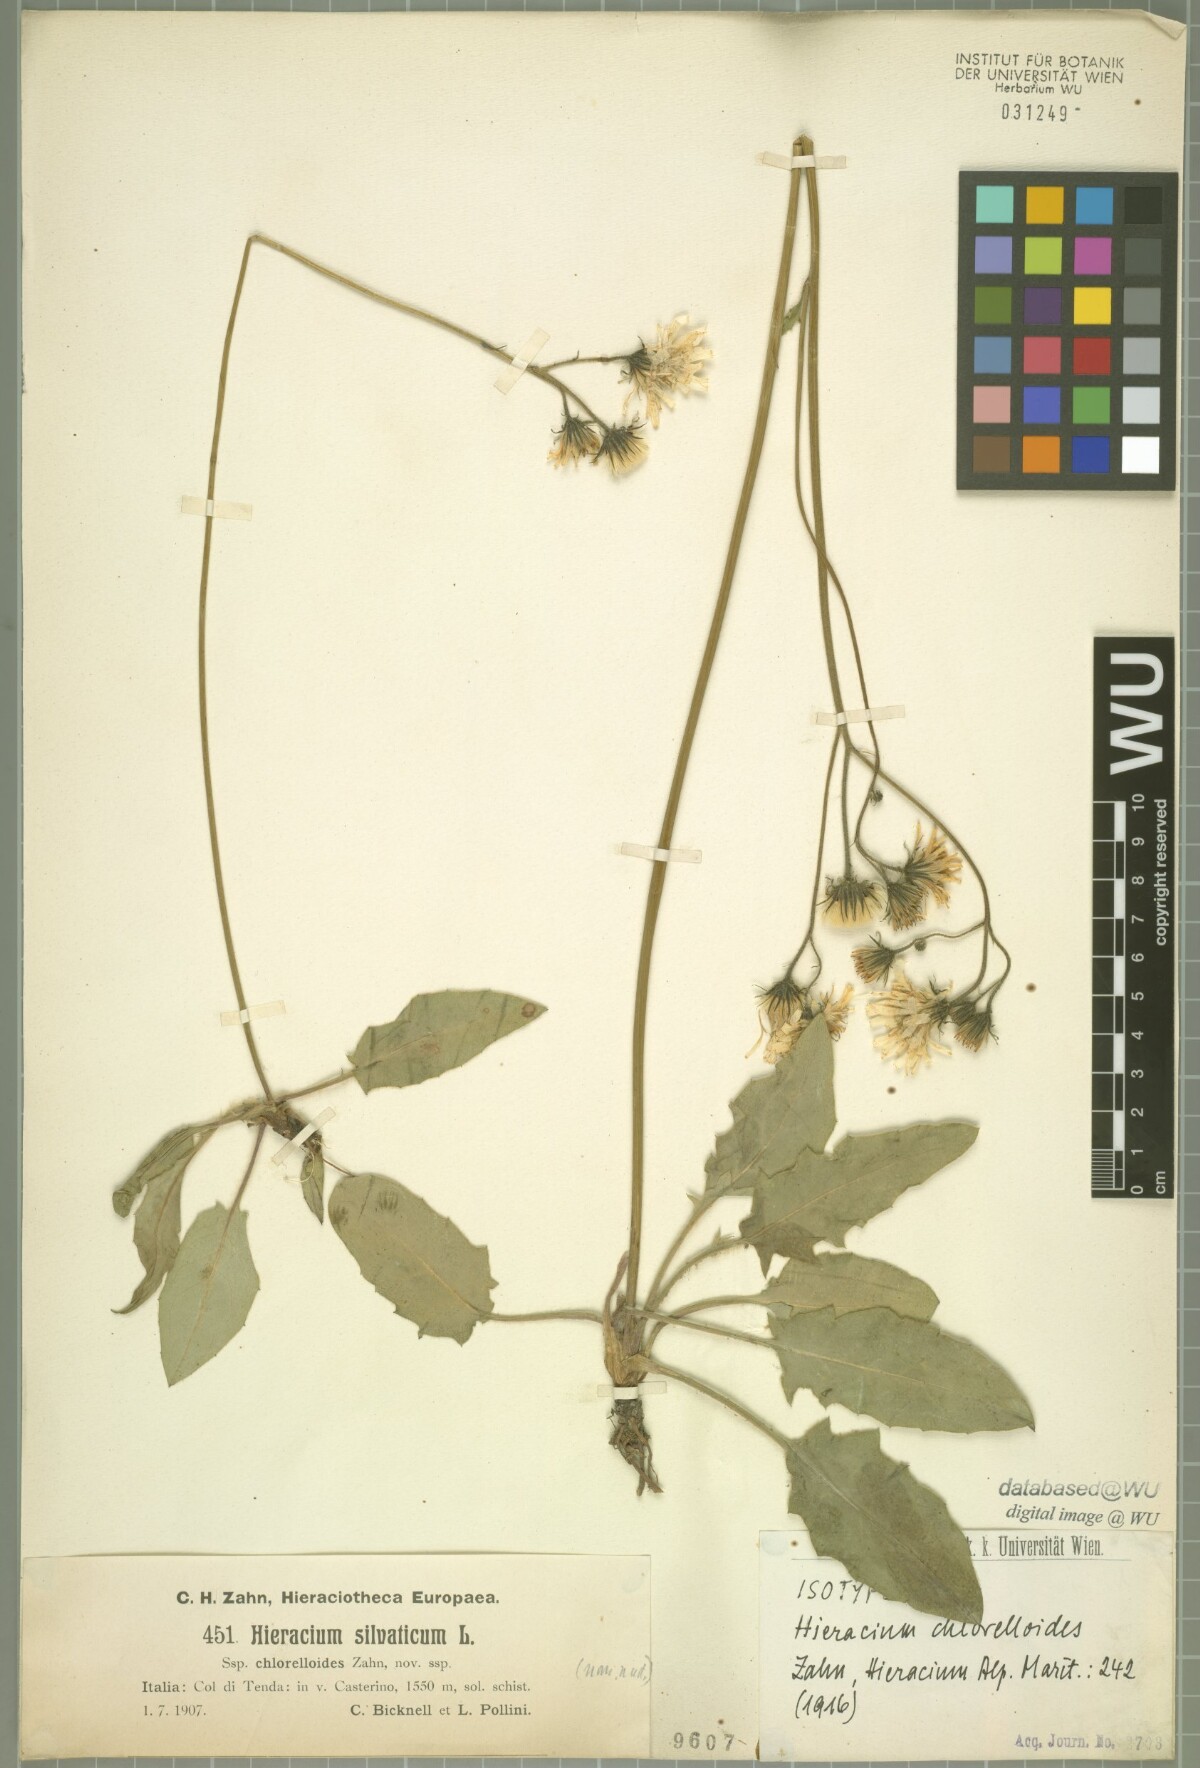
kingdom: Plantae
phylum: Tracheophyta
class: Magnoliopsida
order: Asterales
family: Asteraceae
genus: Hieracium
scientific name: Hieracium chlorelloides
